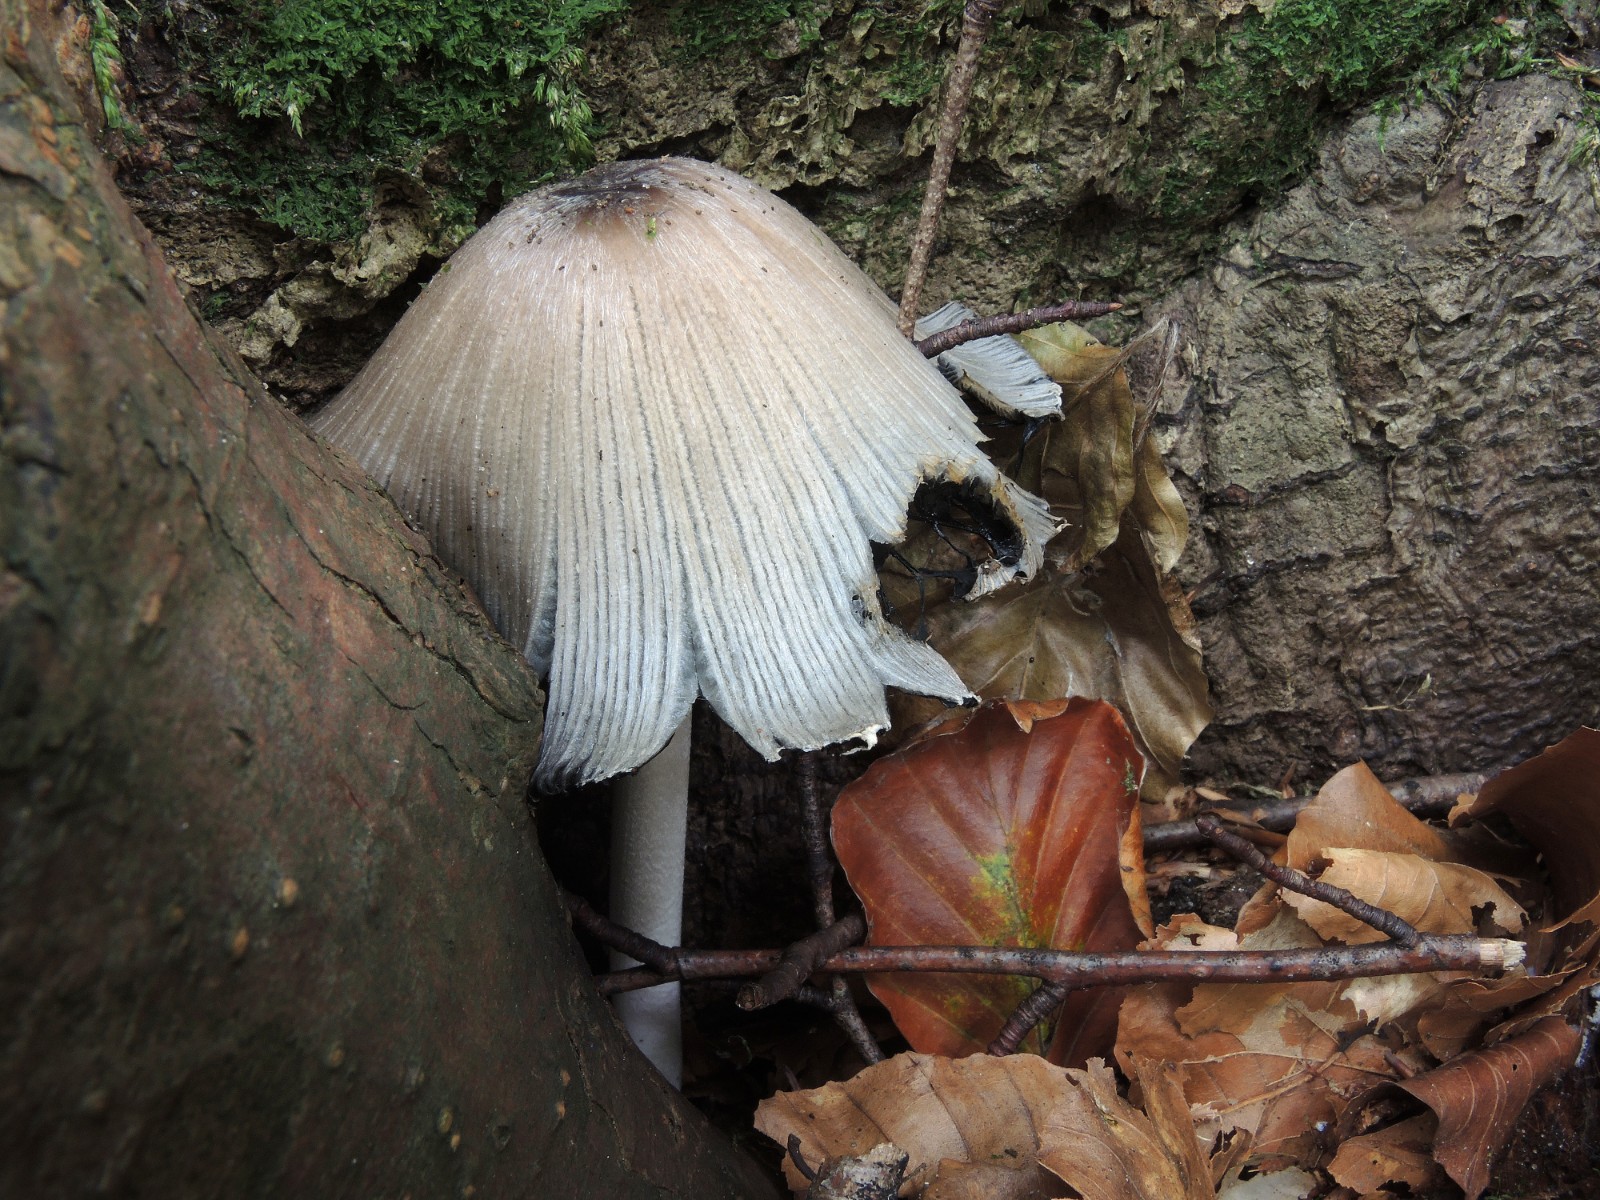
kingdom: Fungi
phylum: Basidiomycota
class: Agaricomycetes
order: Agaricales
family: Psathyrellaceae
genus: Coprinopsis
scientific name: Coprinopsis insignis
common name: stor blækhat
